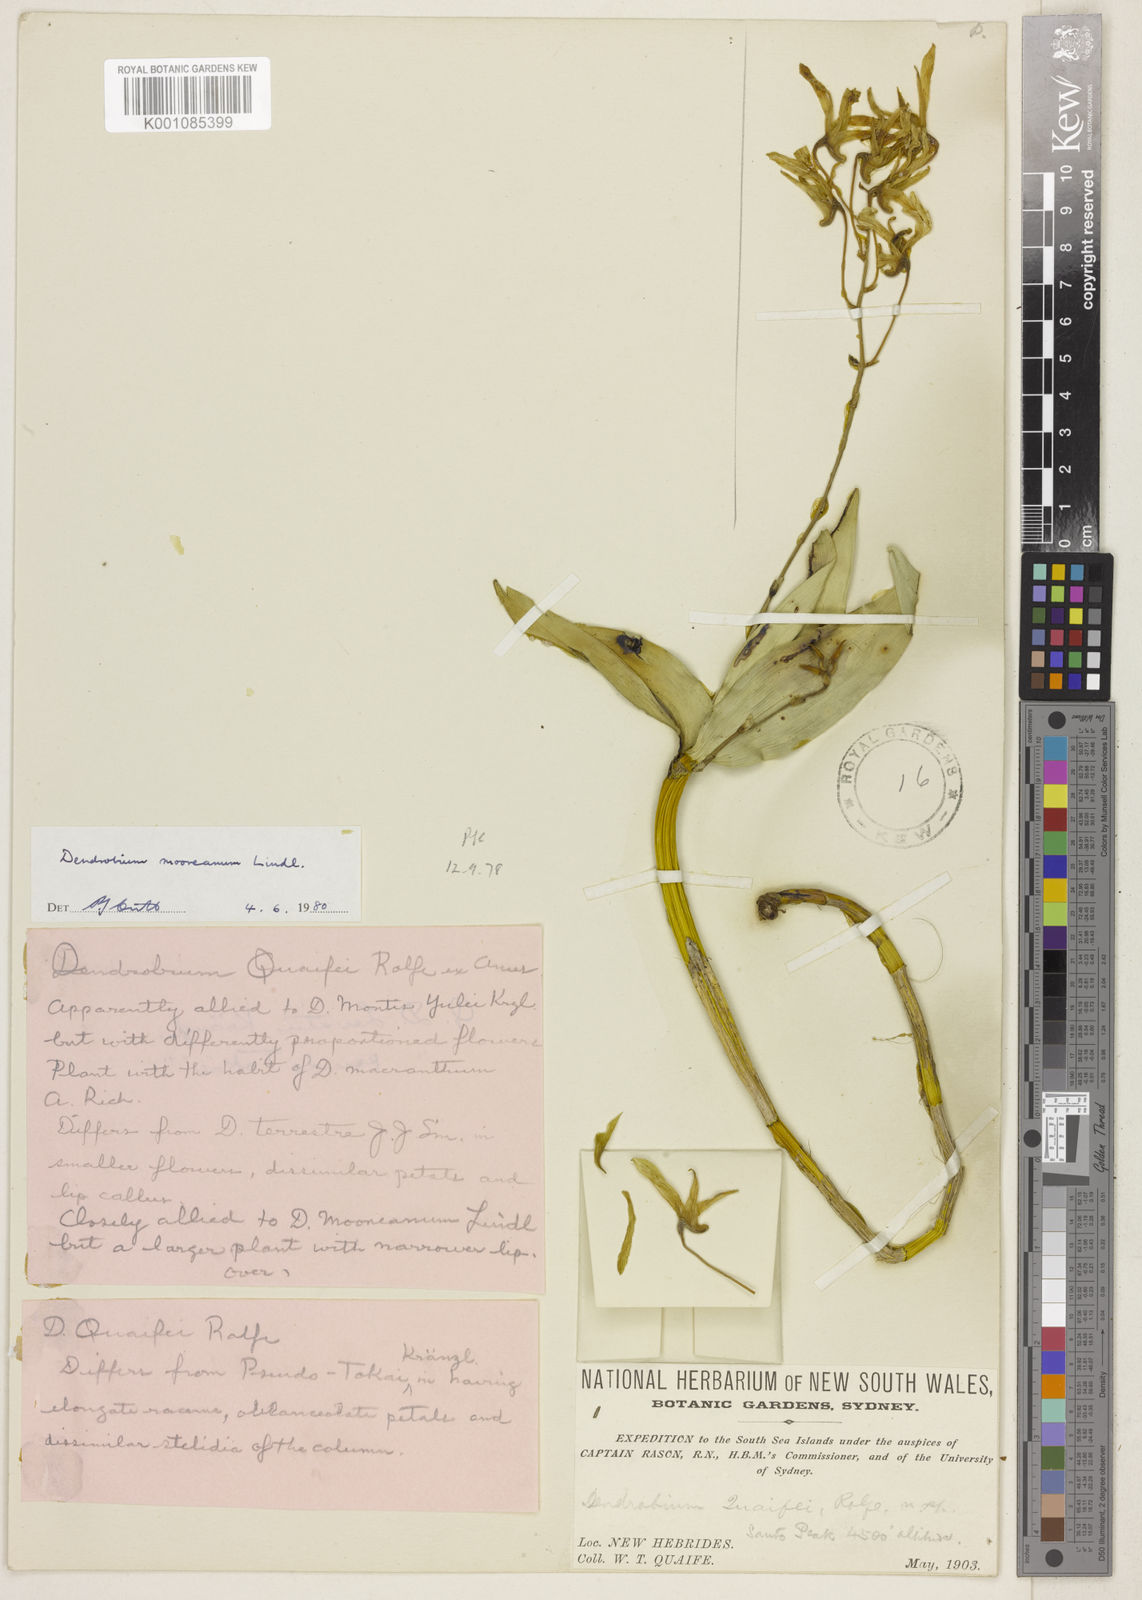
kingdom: Plantae
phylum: Tracheophyta
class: Liliopsida
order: Asparagales
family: Orchidaceae
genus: Dendrobium
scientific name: Dendrobium mooreanum
